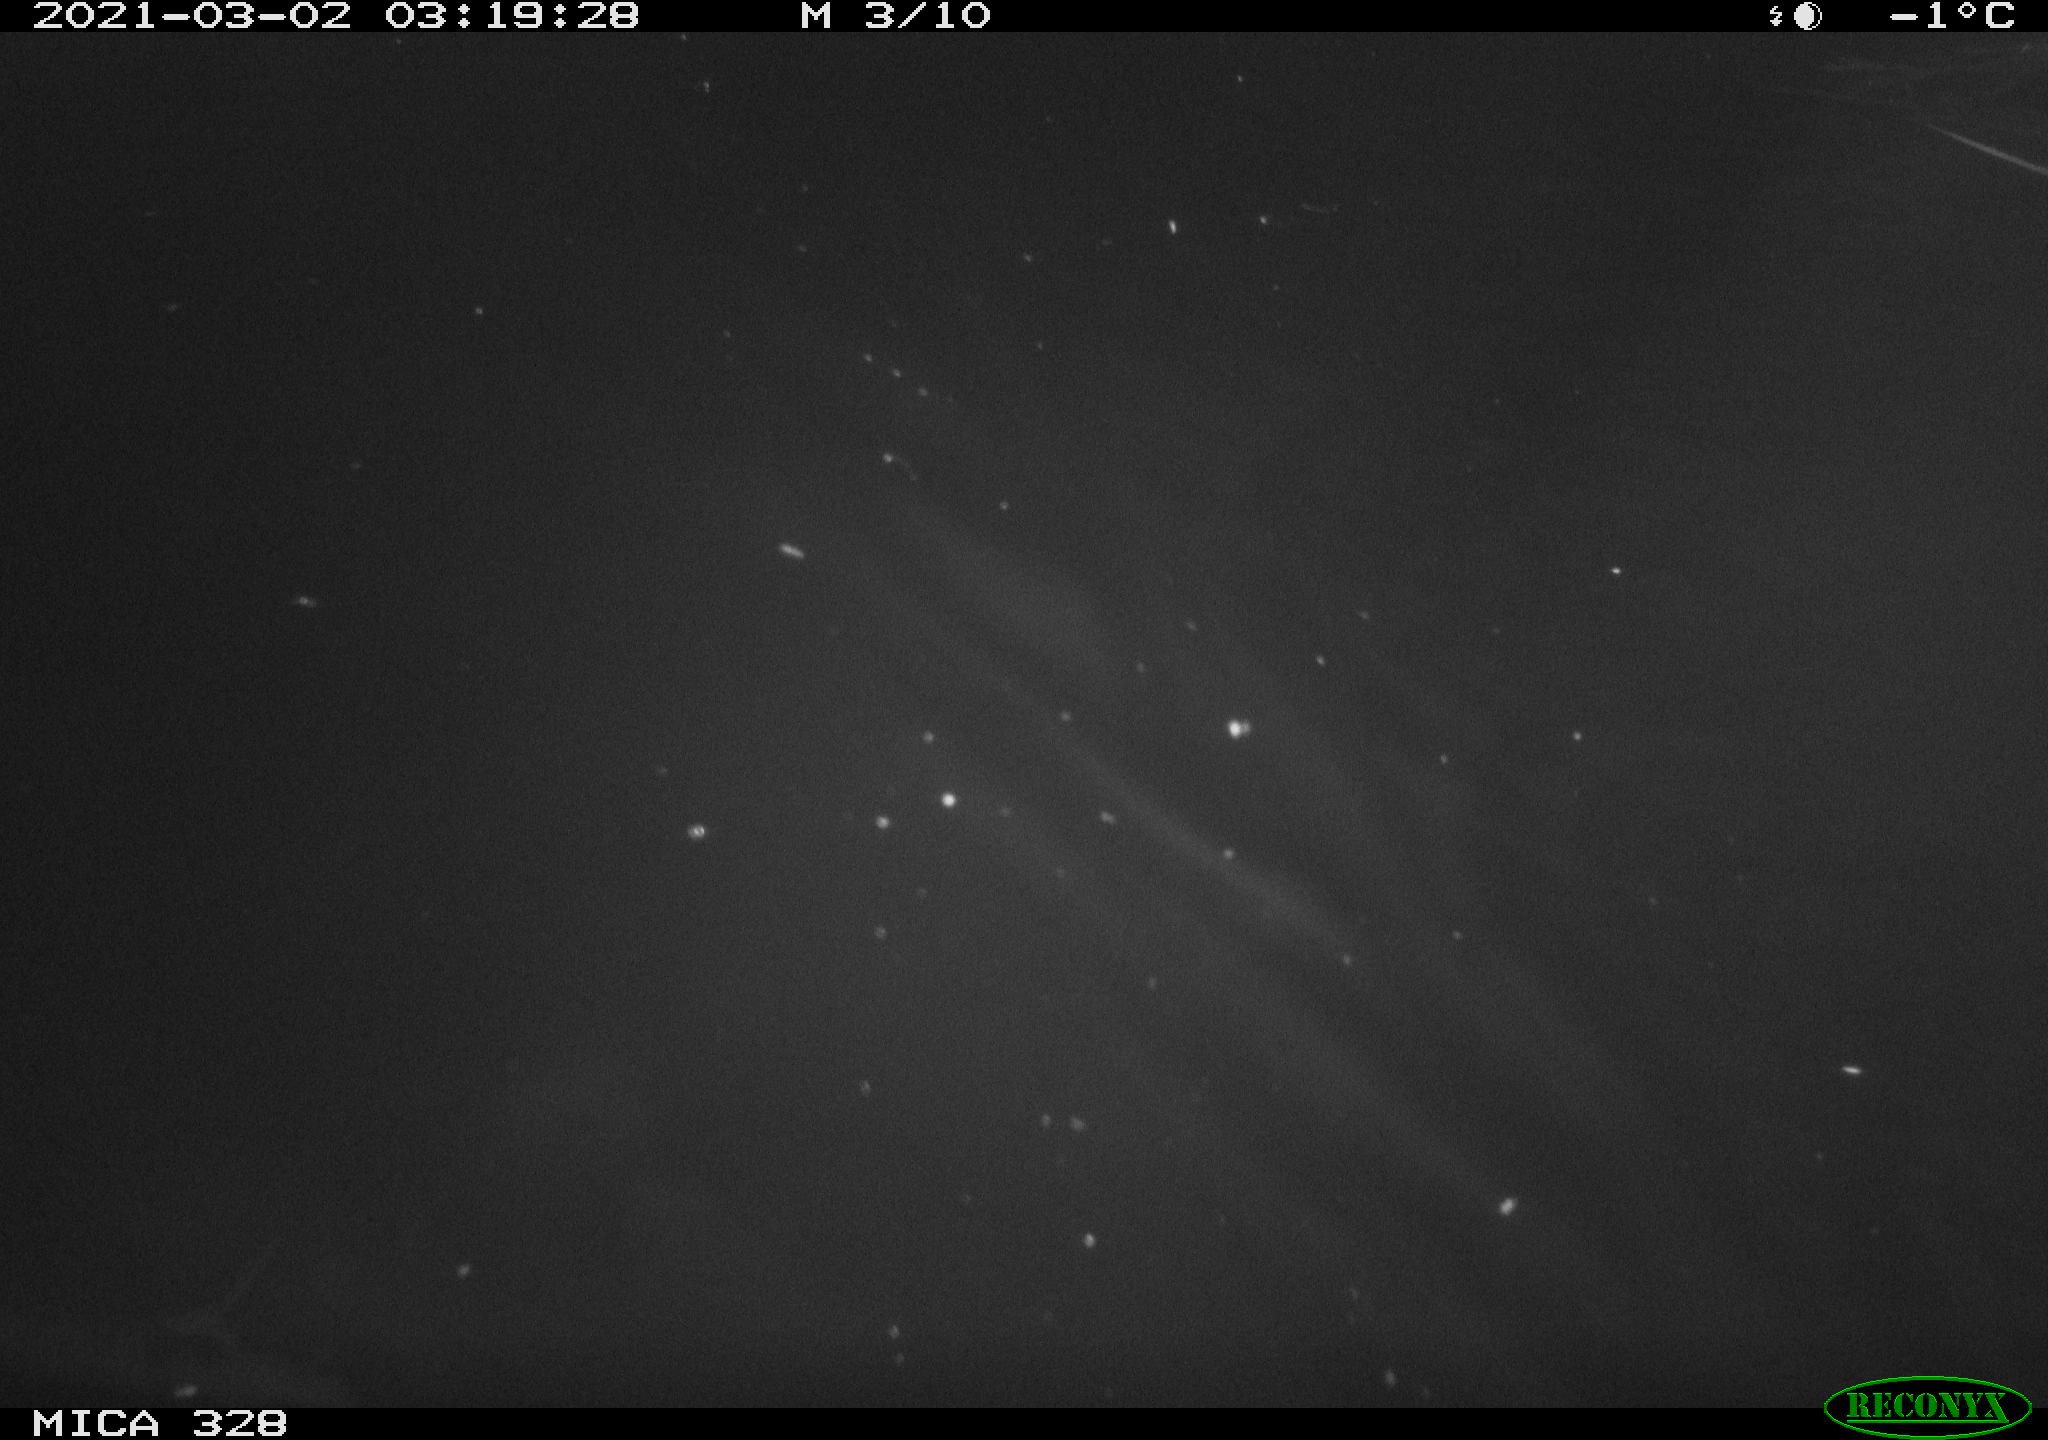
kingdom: Animalia
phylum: Chordata
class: Mammalia
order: Rodentia
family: Cricetidae
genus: Ondatra
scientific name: Ondatra zibethicus
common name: Muskrat
